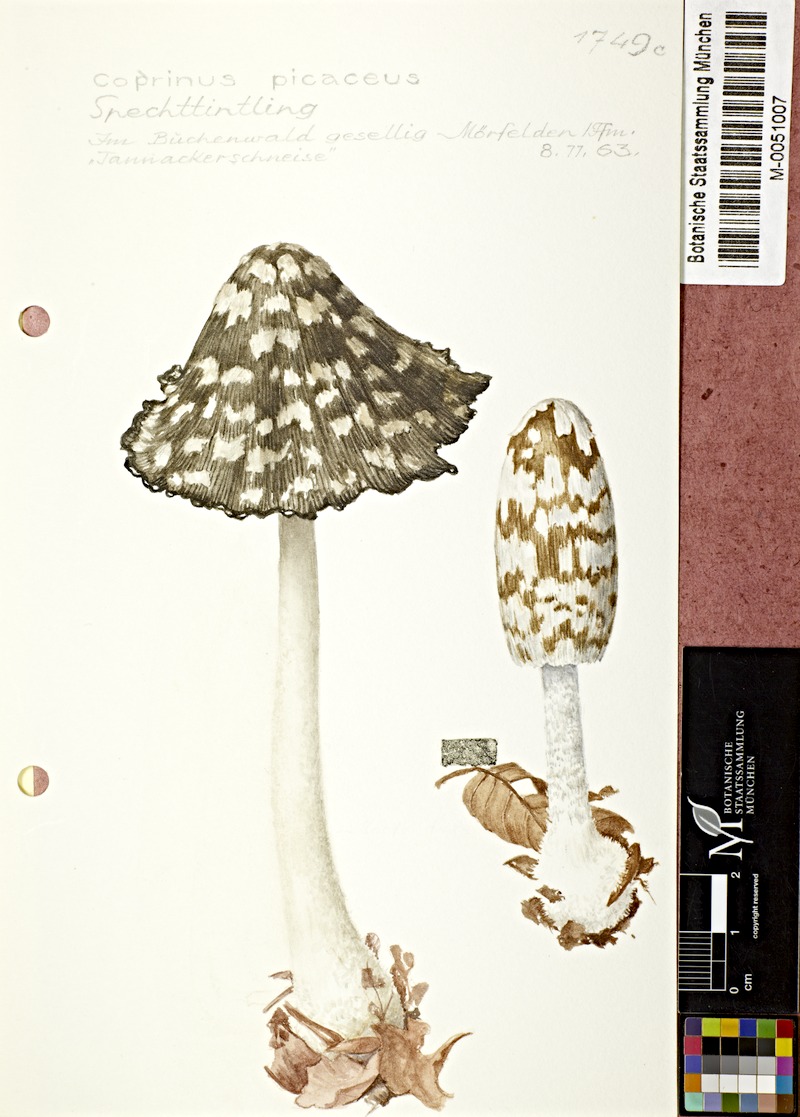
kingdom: Fungi
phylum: Basidiomycota
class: Agaricomycetes
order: Agaricales
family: Psathyrellaceae
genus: Coprinopsis
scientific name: Coprinopsis picacea
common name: Magpie inkcap
